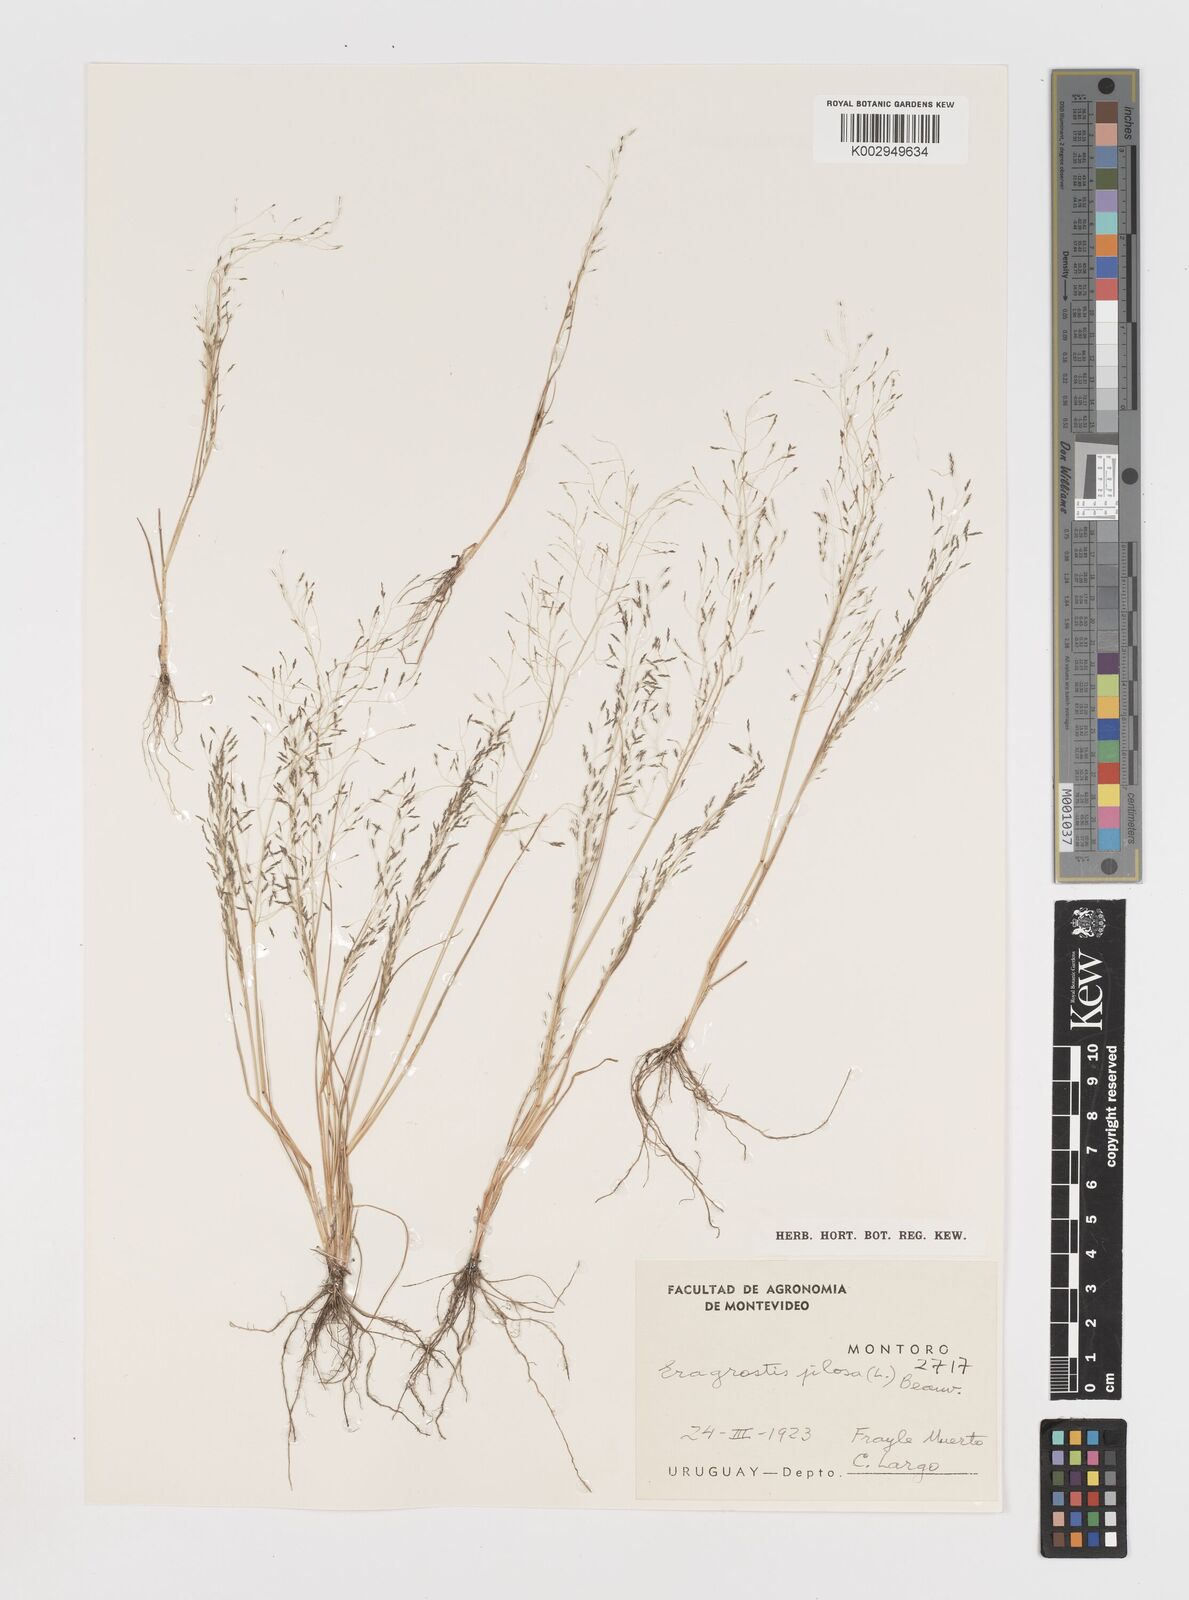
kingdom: Plantae
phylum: Tracheophyta
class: Liliopsida
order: Poales
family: Poaceae
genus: Eragrostis
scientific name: Eragrostis pilosa
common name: Indian lovegrass
